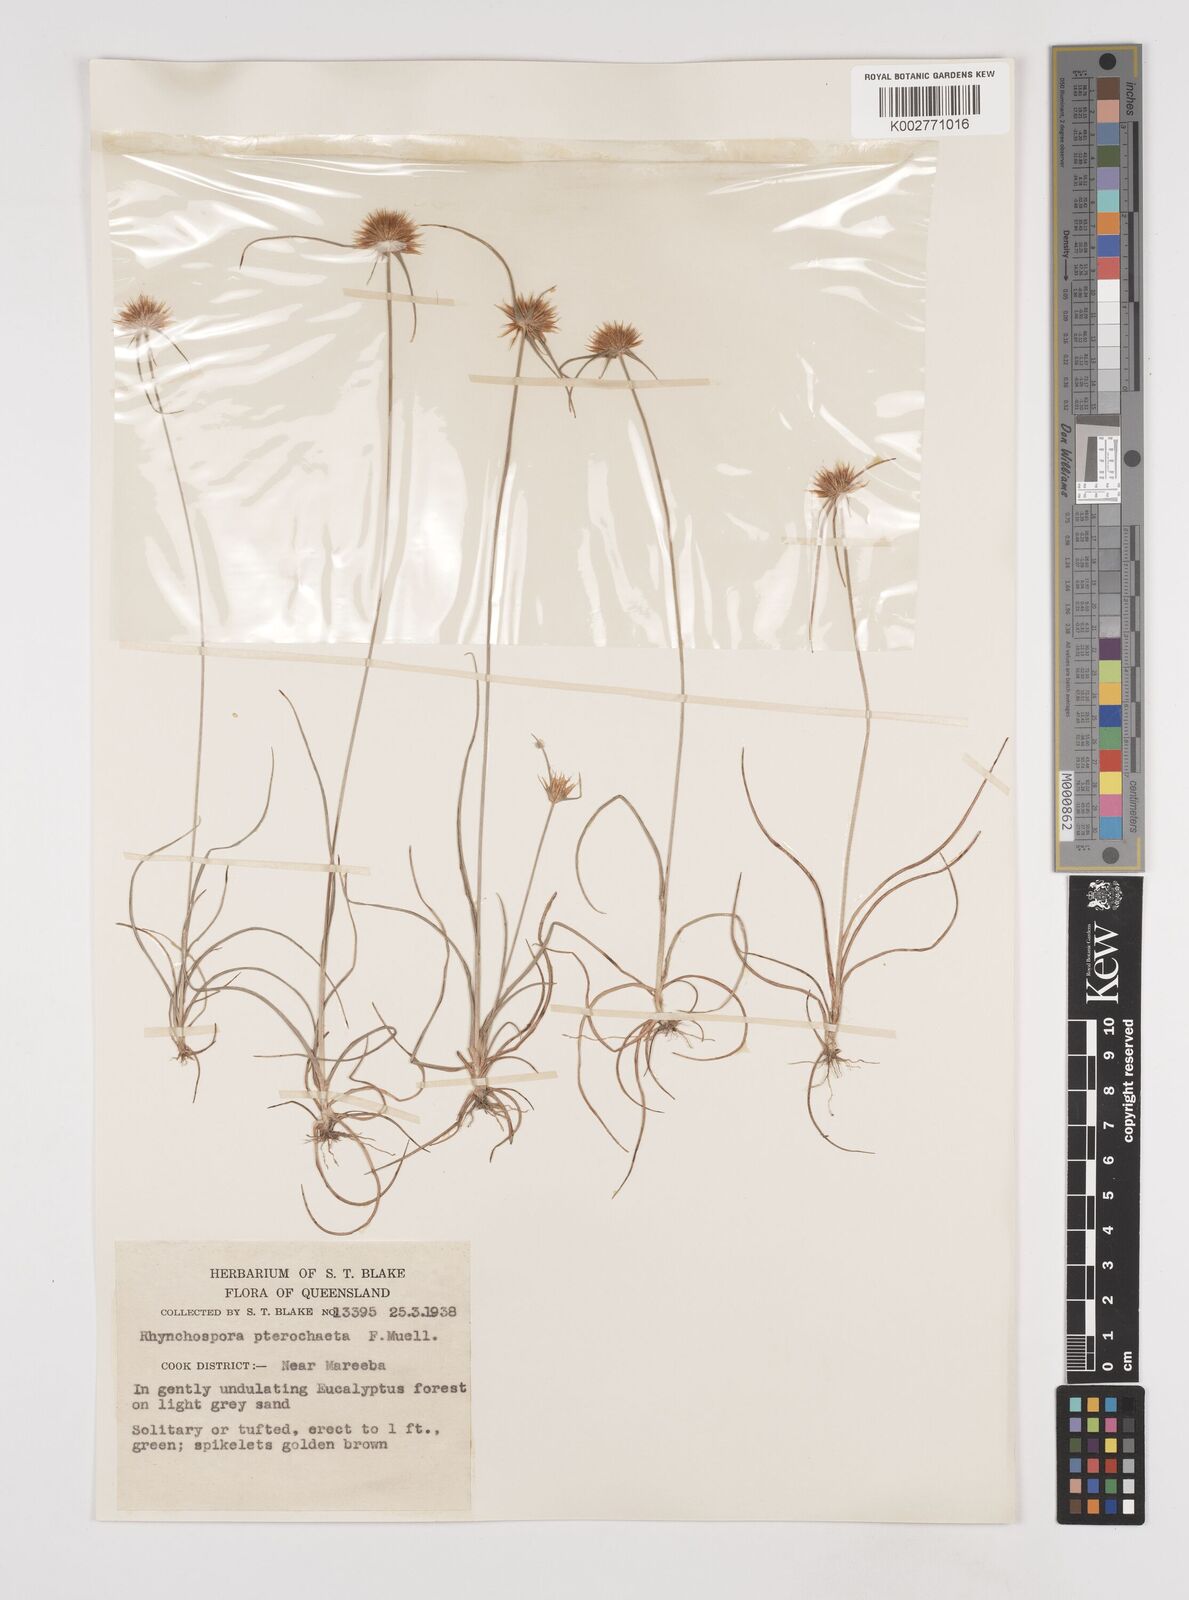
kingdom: Plantae
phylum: Tracheophyta
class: Liliopsida
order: Poales
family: Cyperaceae
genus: Rhynchospora
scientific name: Rhynchospora pterochaeta
